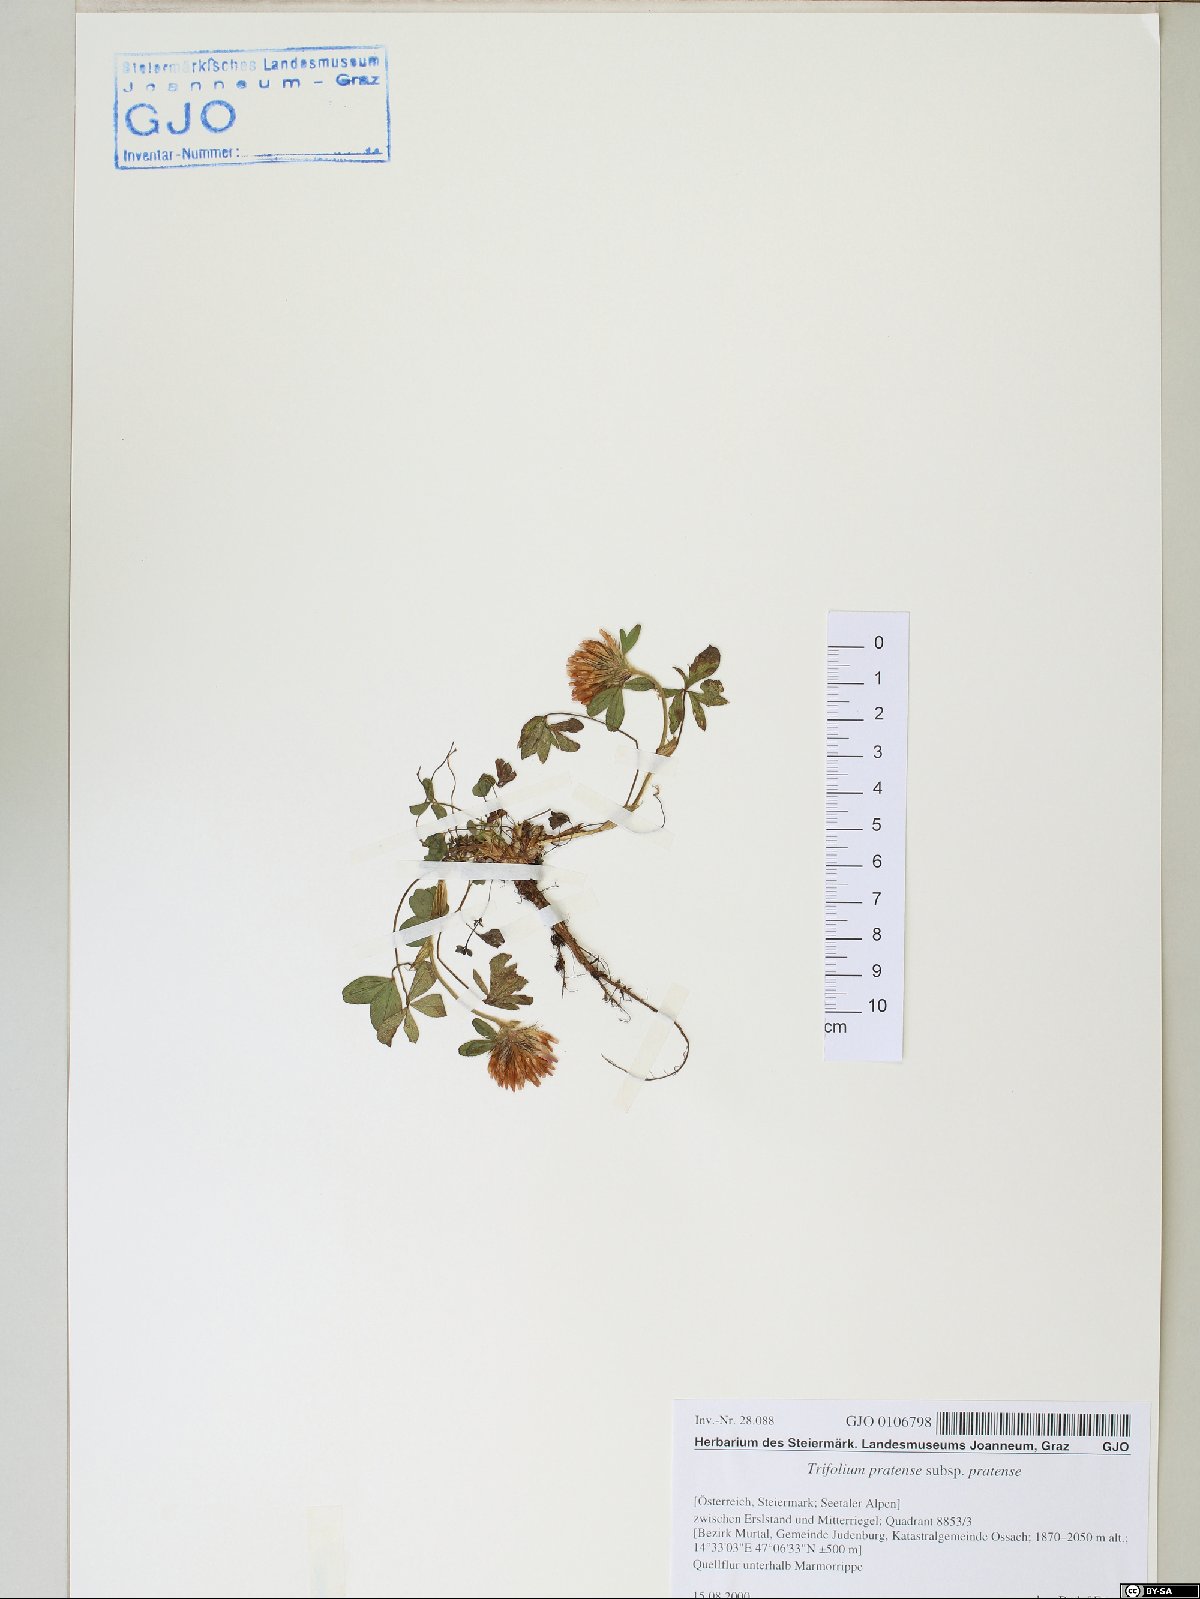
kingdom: Plantae
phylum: Tracheophyta
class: Magnoliopsida
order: Fabales
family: Fabaceae
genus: Trifolium
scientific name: Trifolium pratense
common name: Red clover
